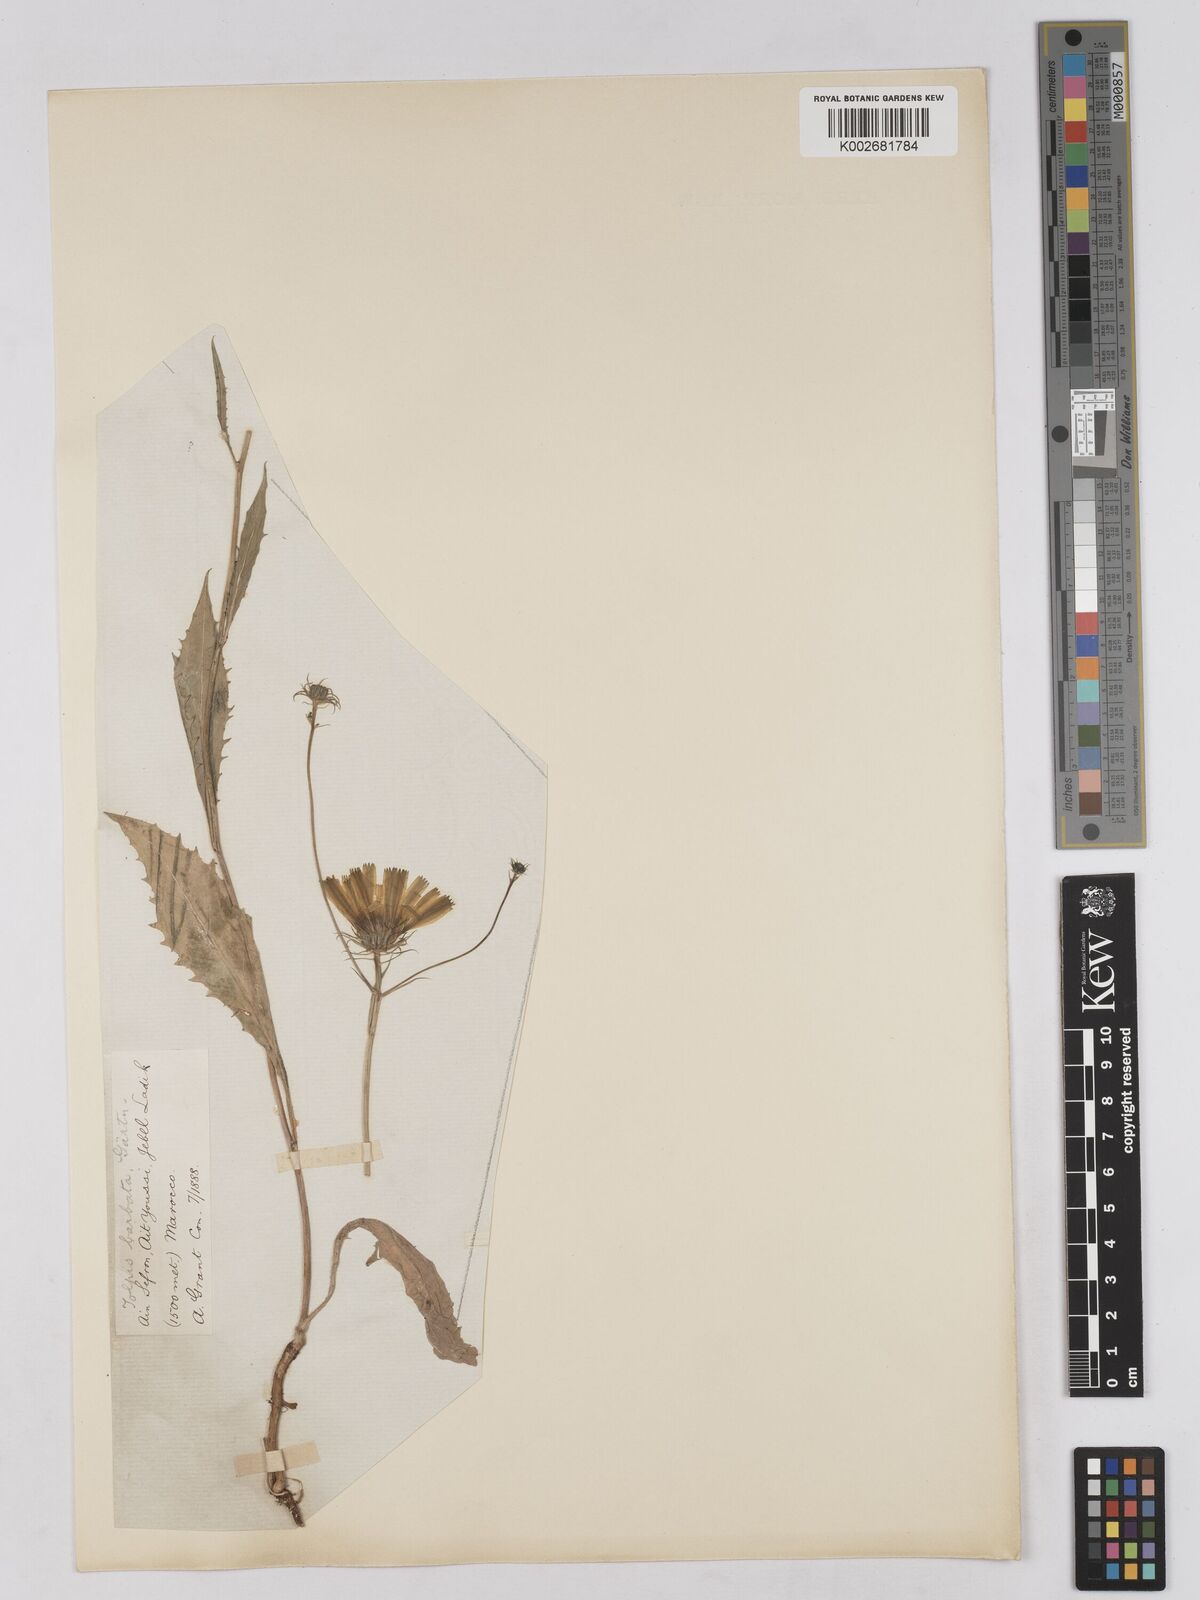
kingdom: Plantae
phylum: Tracheophyta
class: Magnoliopsida
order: Asterales
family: Asteraceae
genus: Tolpis
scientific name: Tolpis liouvillei
